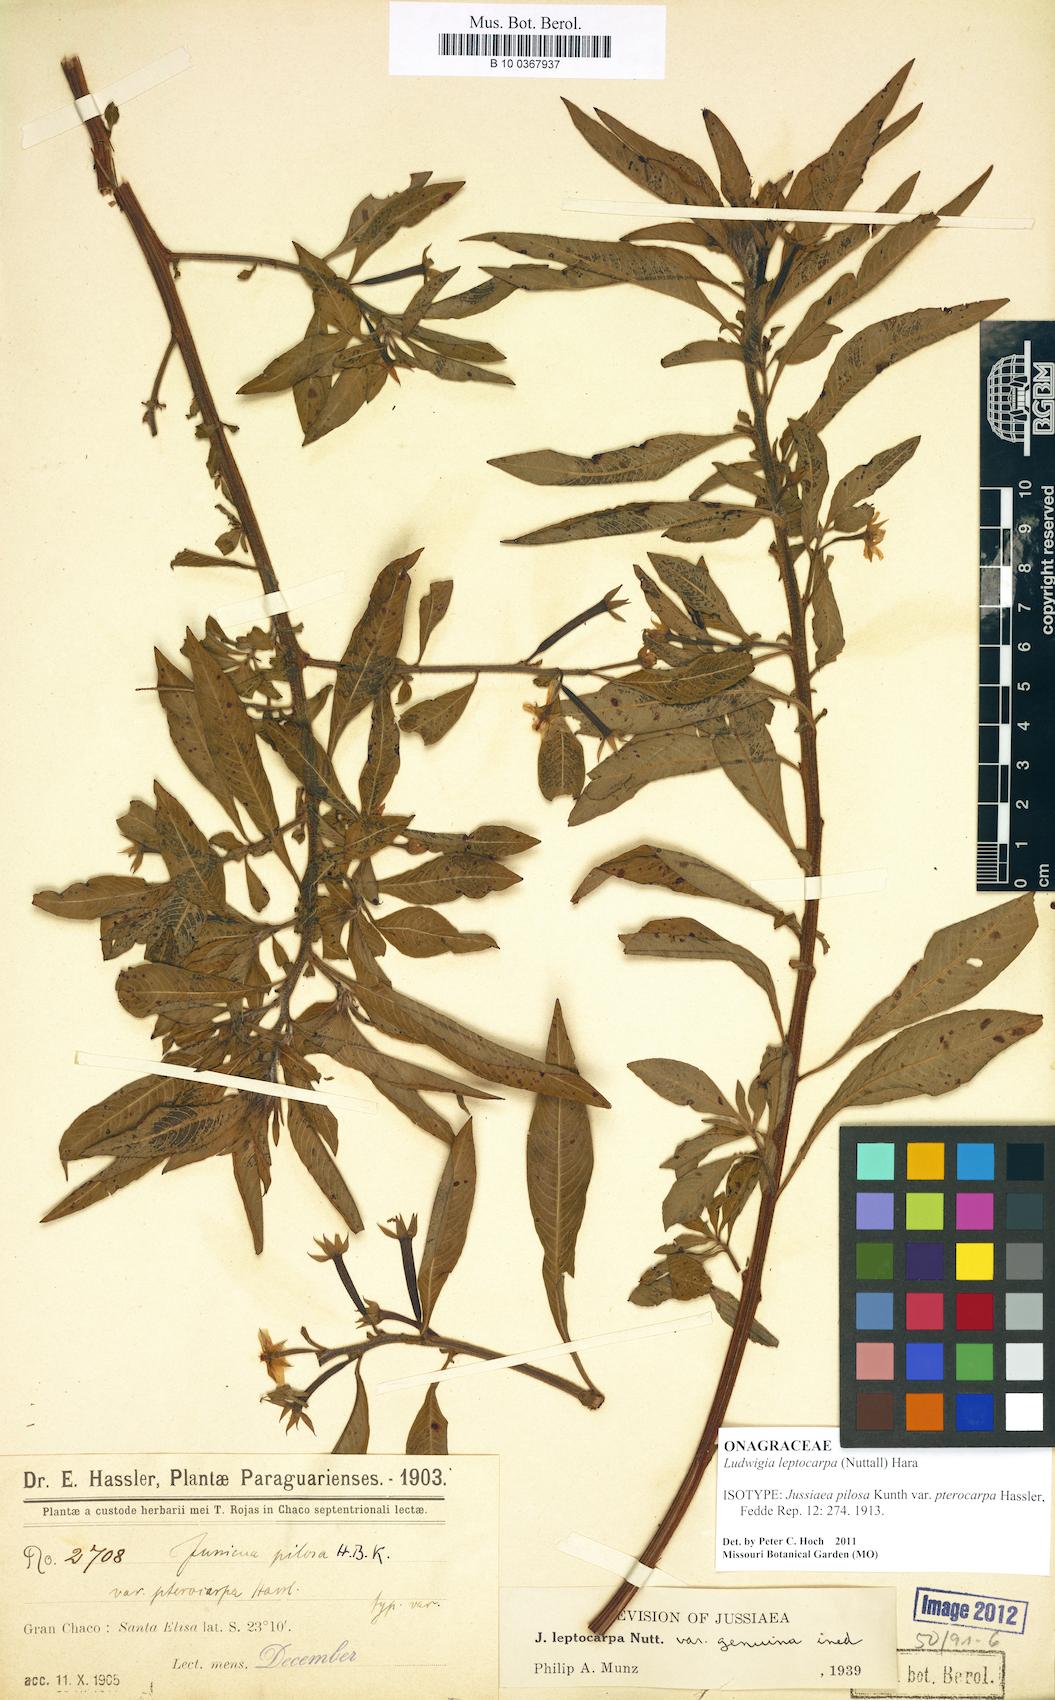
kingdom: Plantae
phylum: Tracheophyta
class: Magnoliopsida
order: Myrtales
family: Onagraceae
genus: Ludwigia
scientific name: Ludwigia leptocarpa
